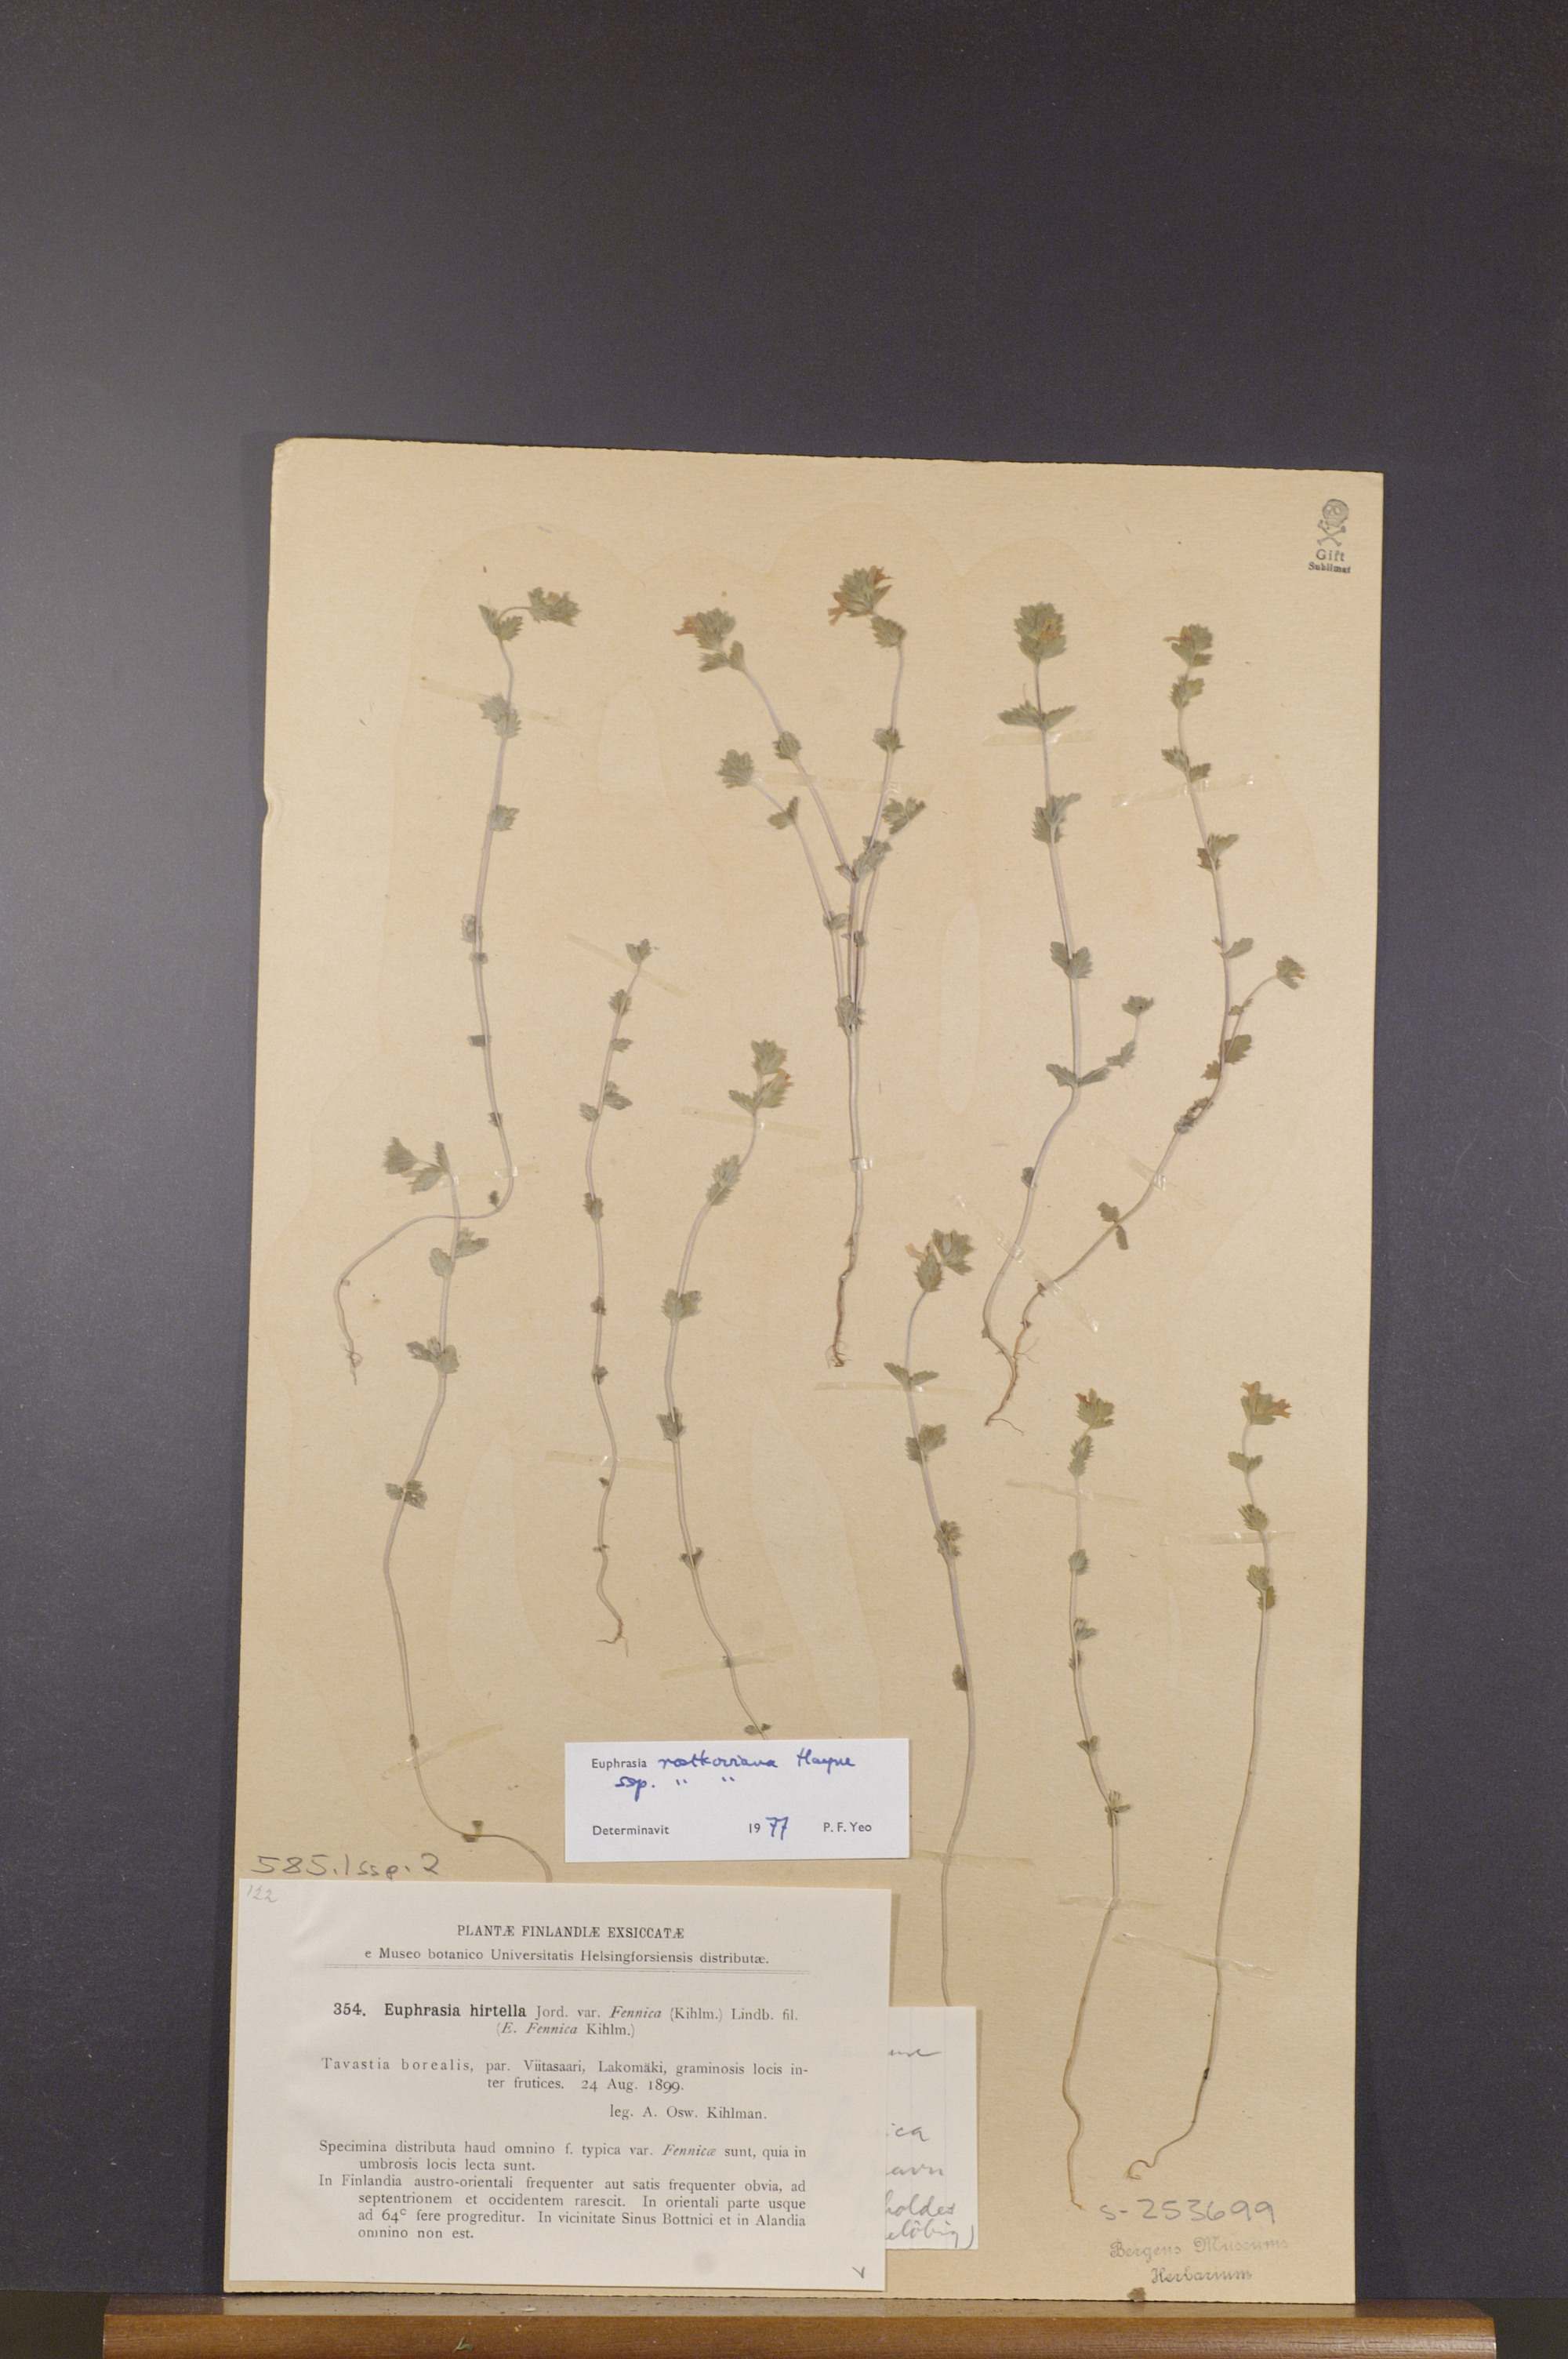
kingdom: Plantae
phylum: Tracheophyta
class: Magnoliopsida
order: Lamiales
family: Orobanchaceae
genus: Euphrasia
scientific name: Euphrasia officinalis
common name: Eyebright
